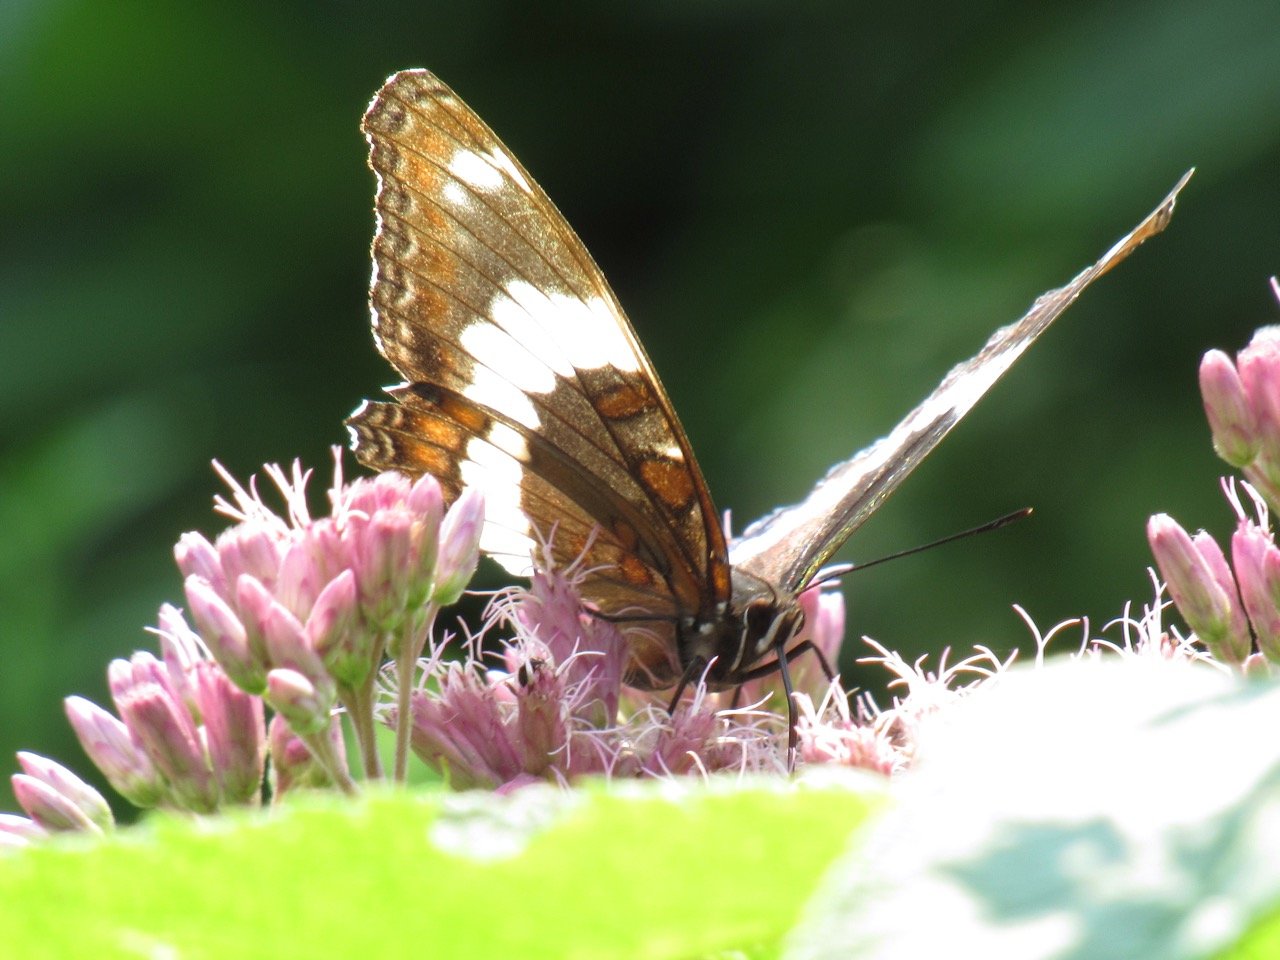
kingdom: Animalia
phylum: Arthropoda
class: Insecta
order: Lepidoptera
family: Nymphalidae
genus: Limenitis
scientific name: Limenitis arthemis
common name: Red-spotted Admiral
